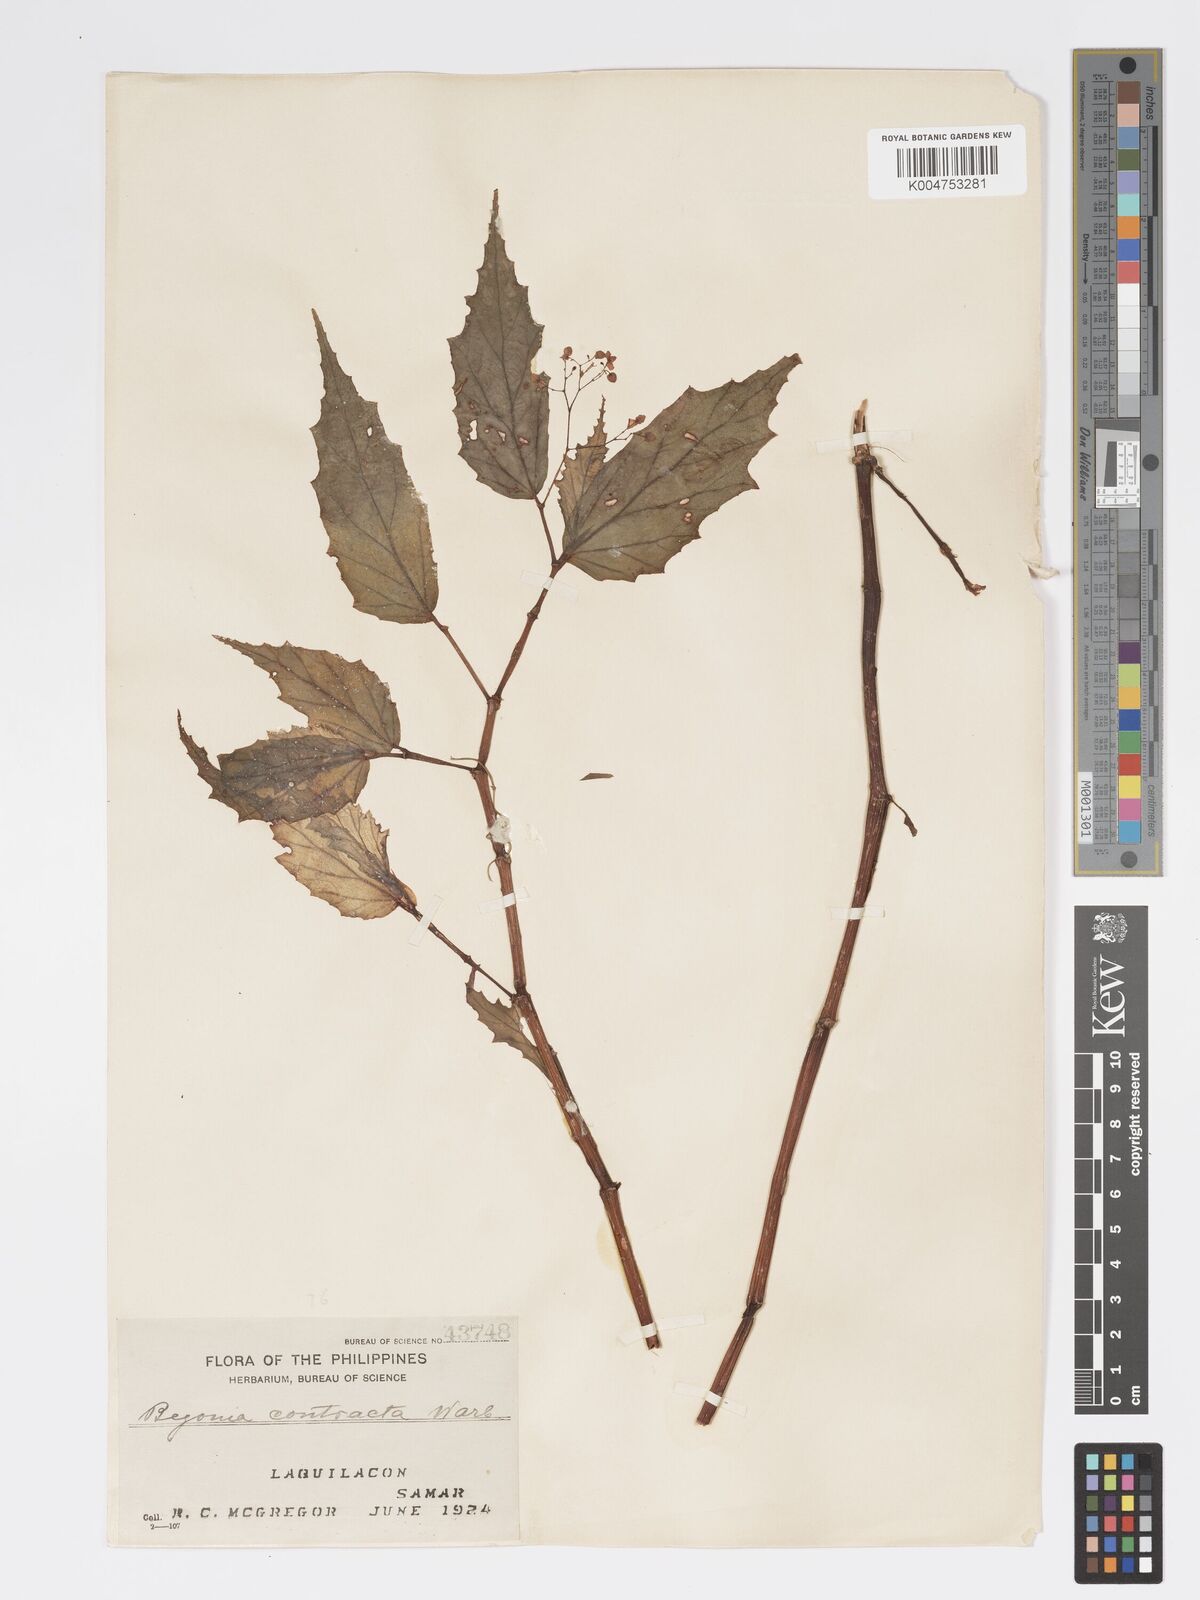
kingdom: Plantae
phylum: Tracheophyta
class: Magnoliopsida
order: Cucurbitales
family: Begoniaceae
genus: Begonia
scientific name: Begonia contracta
